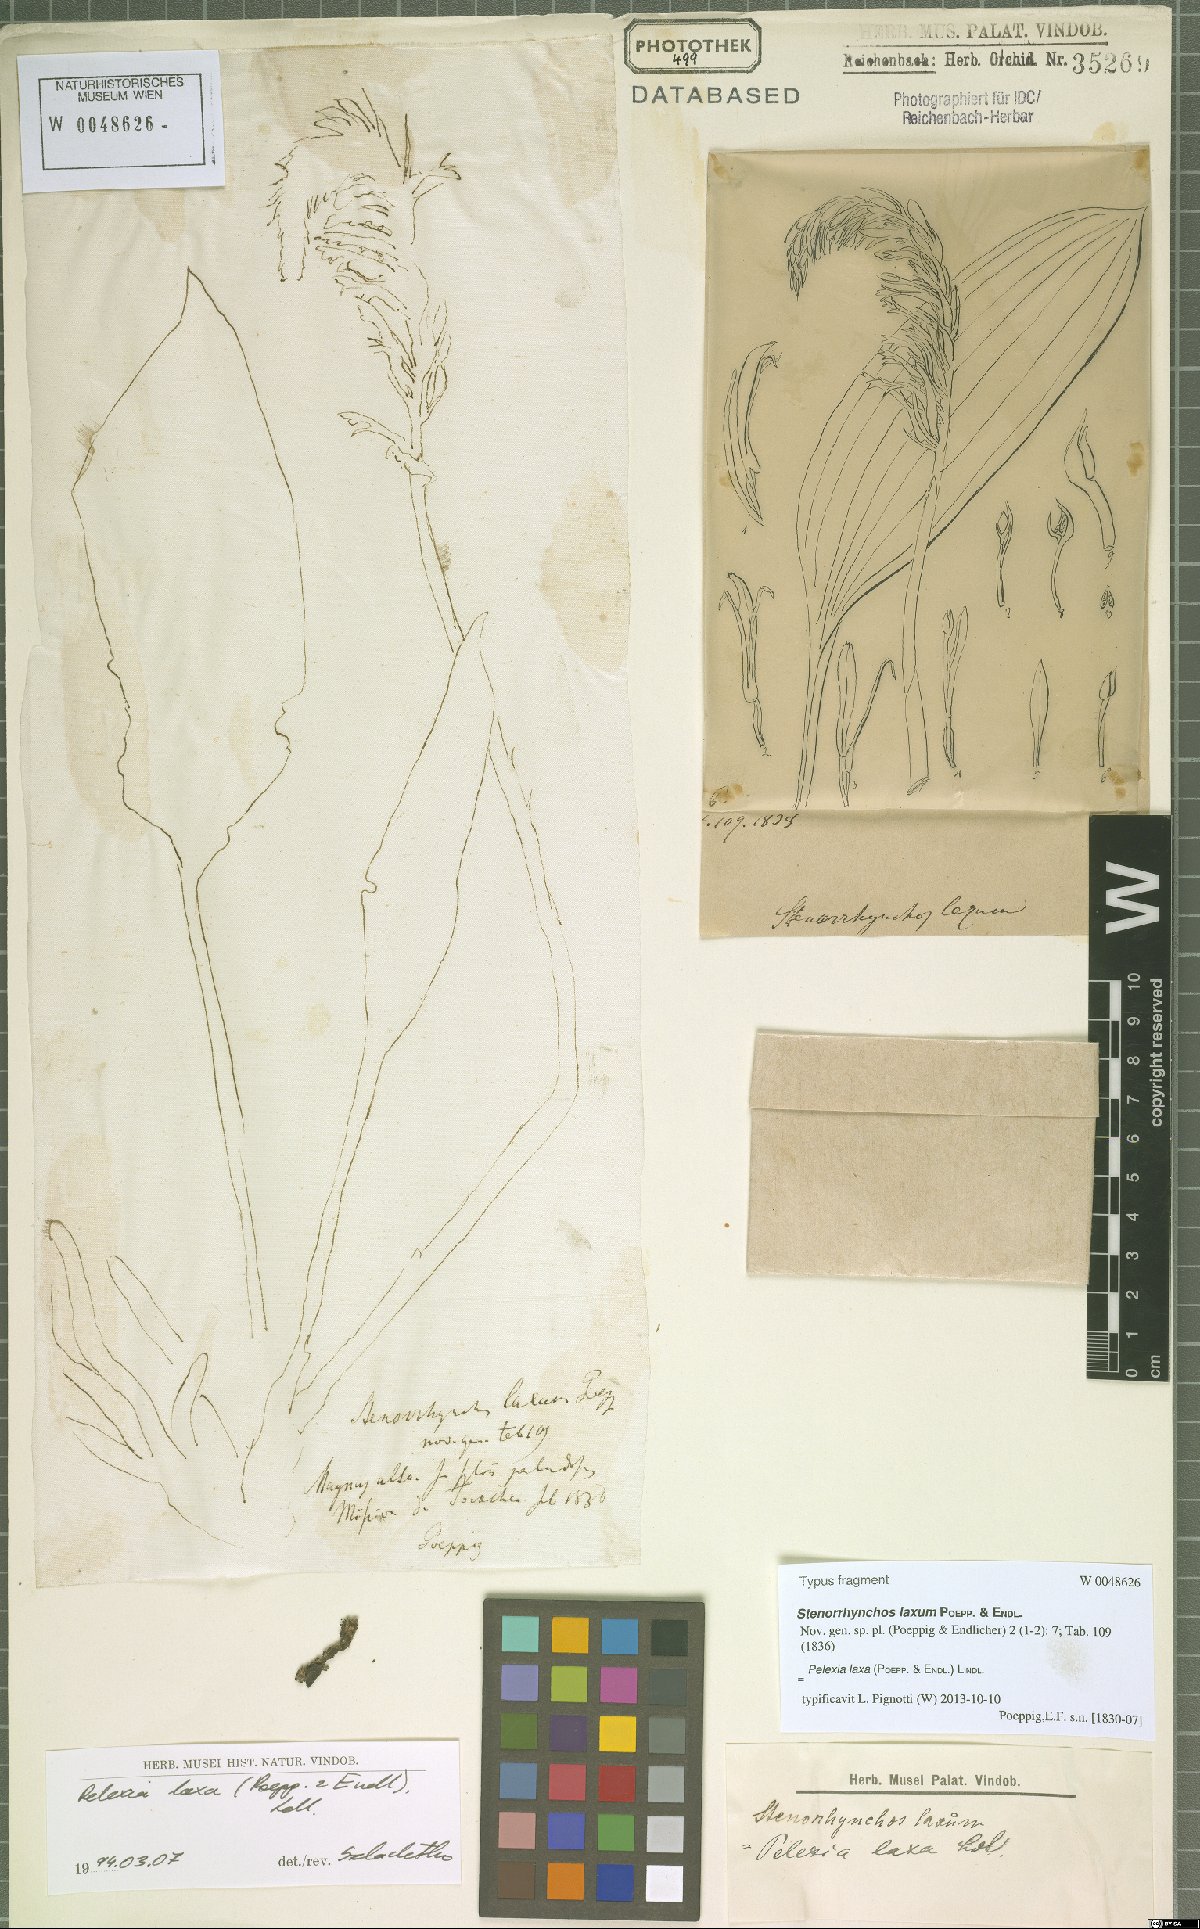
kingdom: Plantae
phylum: Tracheophyta
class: Liliopsida
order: Asparagales
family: Orchidaceae
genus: Pelexia
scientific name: Pelexia laxa
